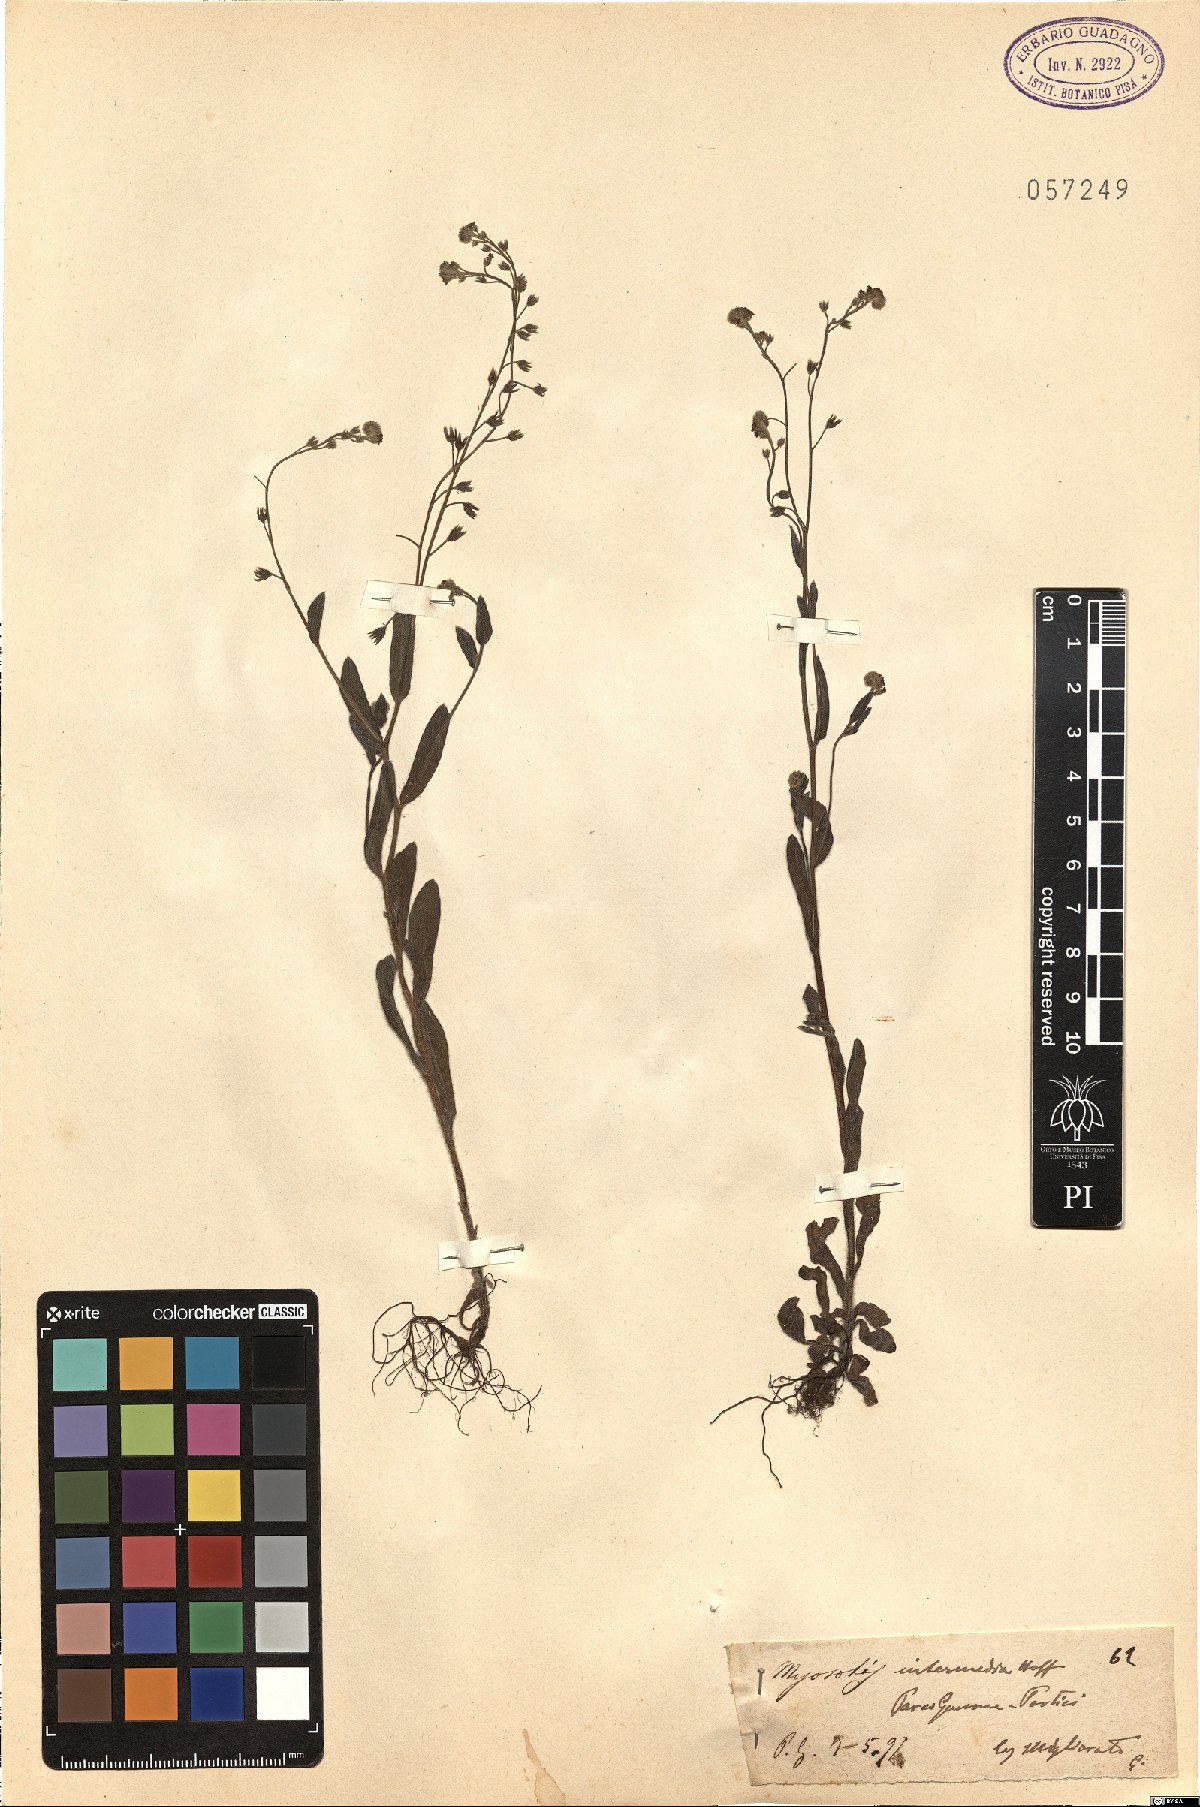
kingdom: Plantae
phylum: Tracheophyta
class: Magnoliopsida
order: Boraginales
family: Boraginaceae
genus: Myosotis
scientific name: Myosotis arvensis
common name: Field forget-me-not
